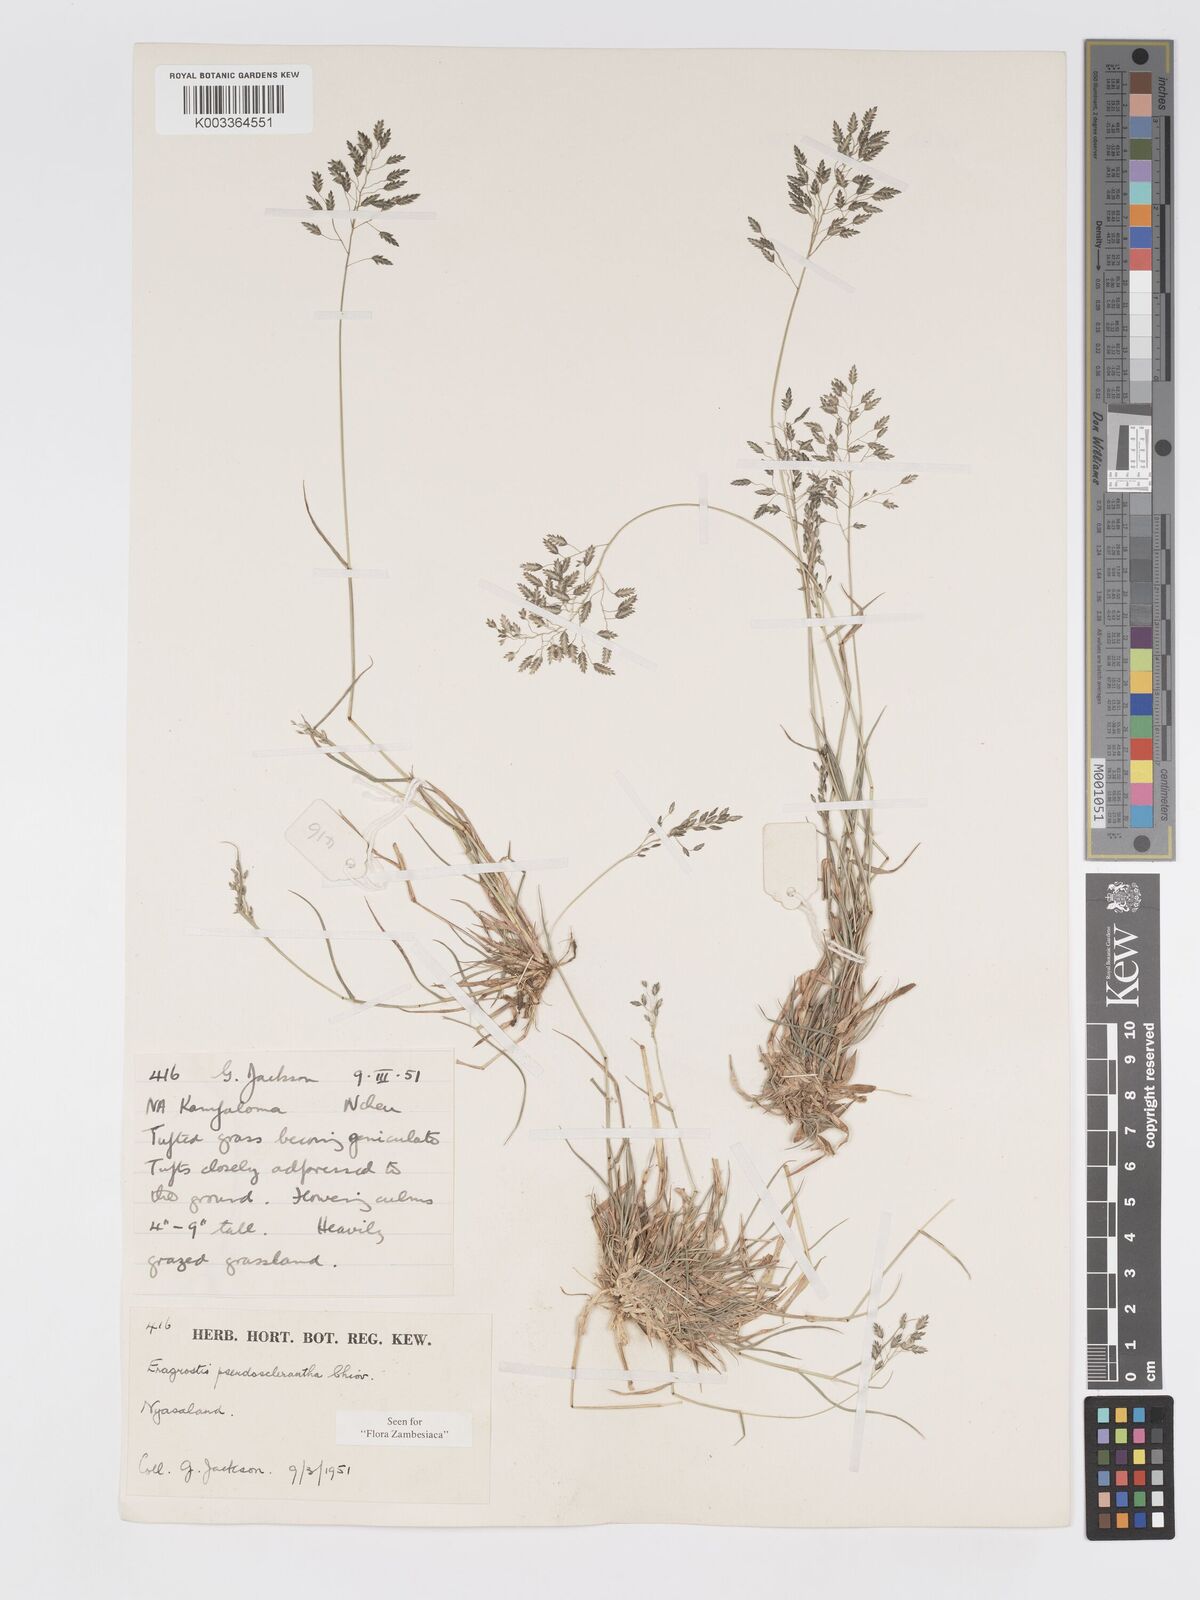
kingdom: Plantae
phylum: Tracheophyta
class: Liliopsida
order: Poales
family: Poaceae
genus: Eragrostis
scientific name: Eragrostis patentipilosa
